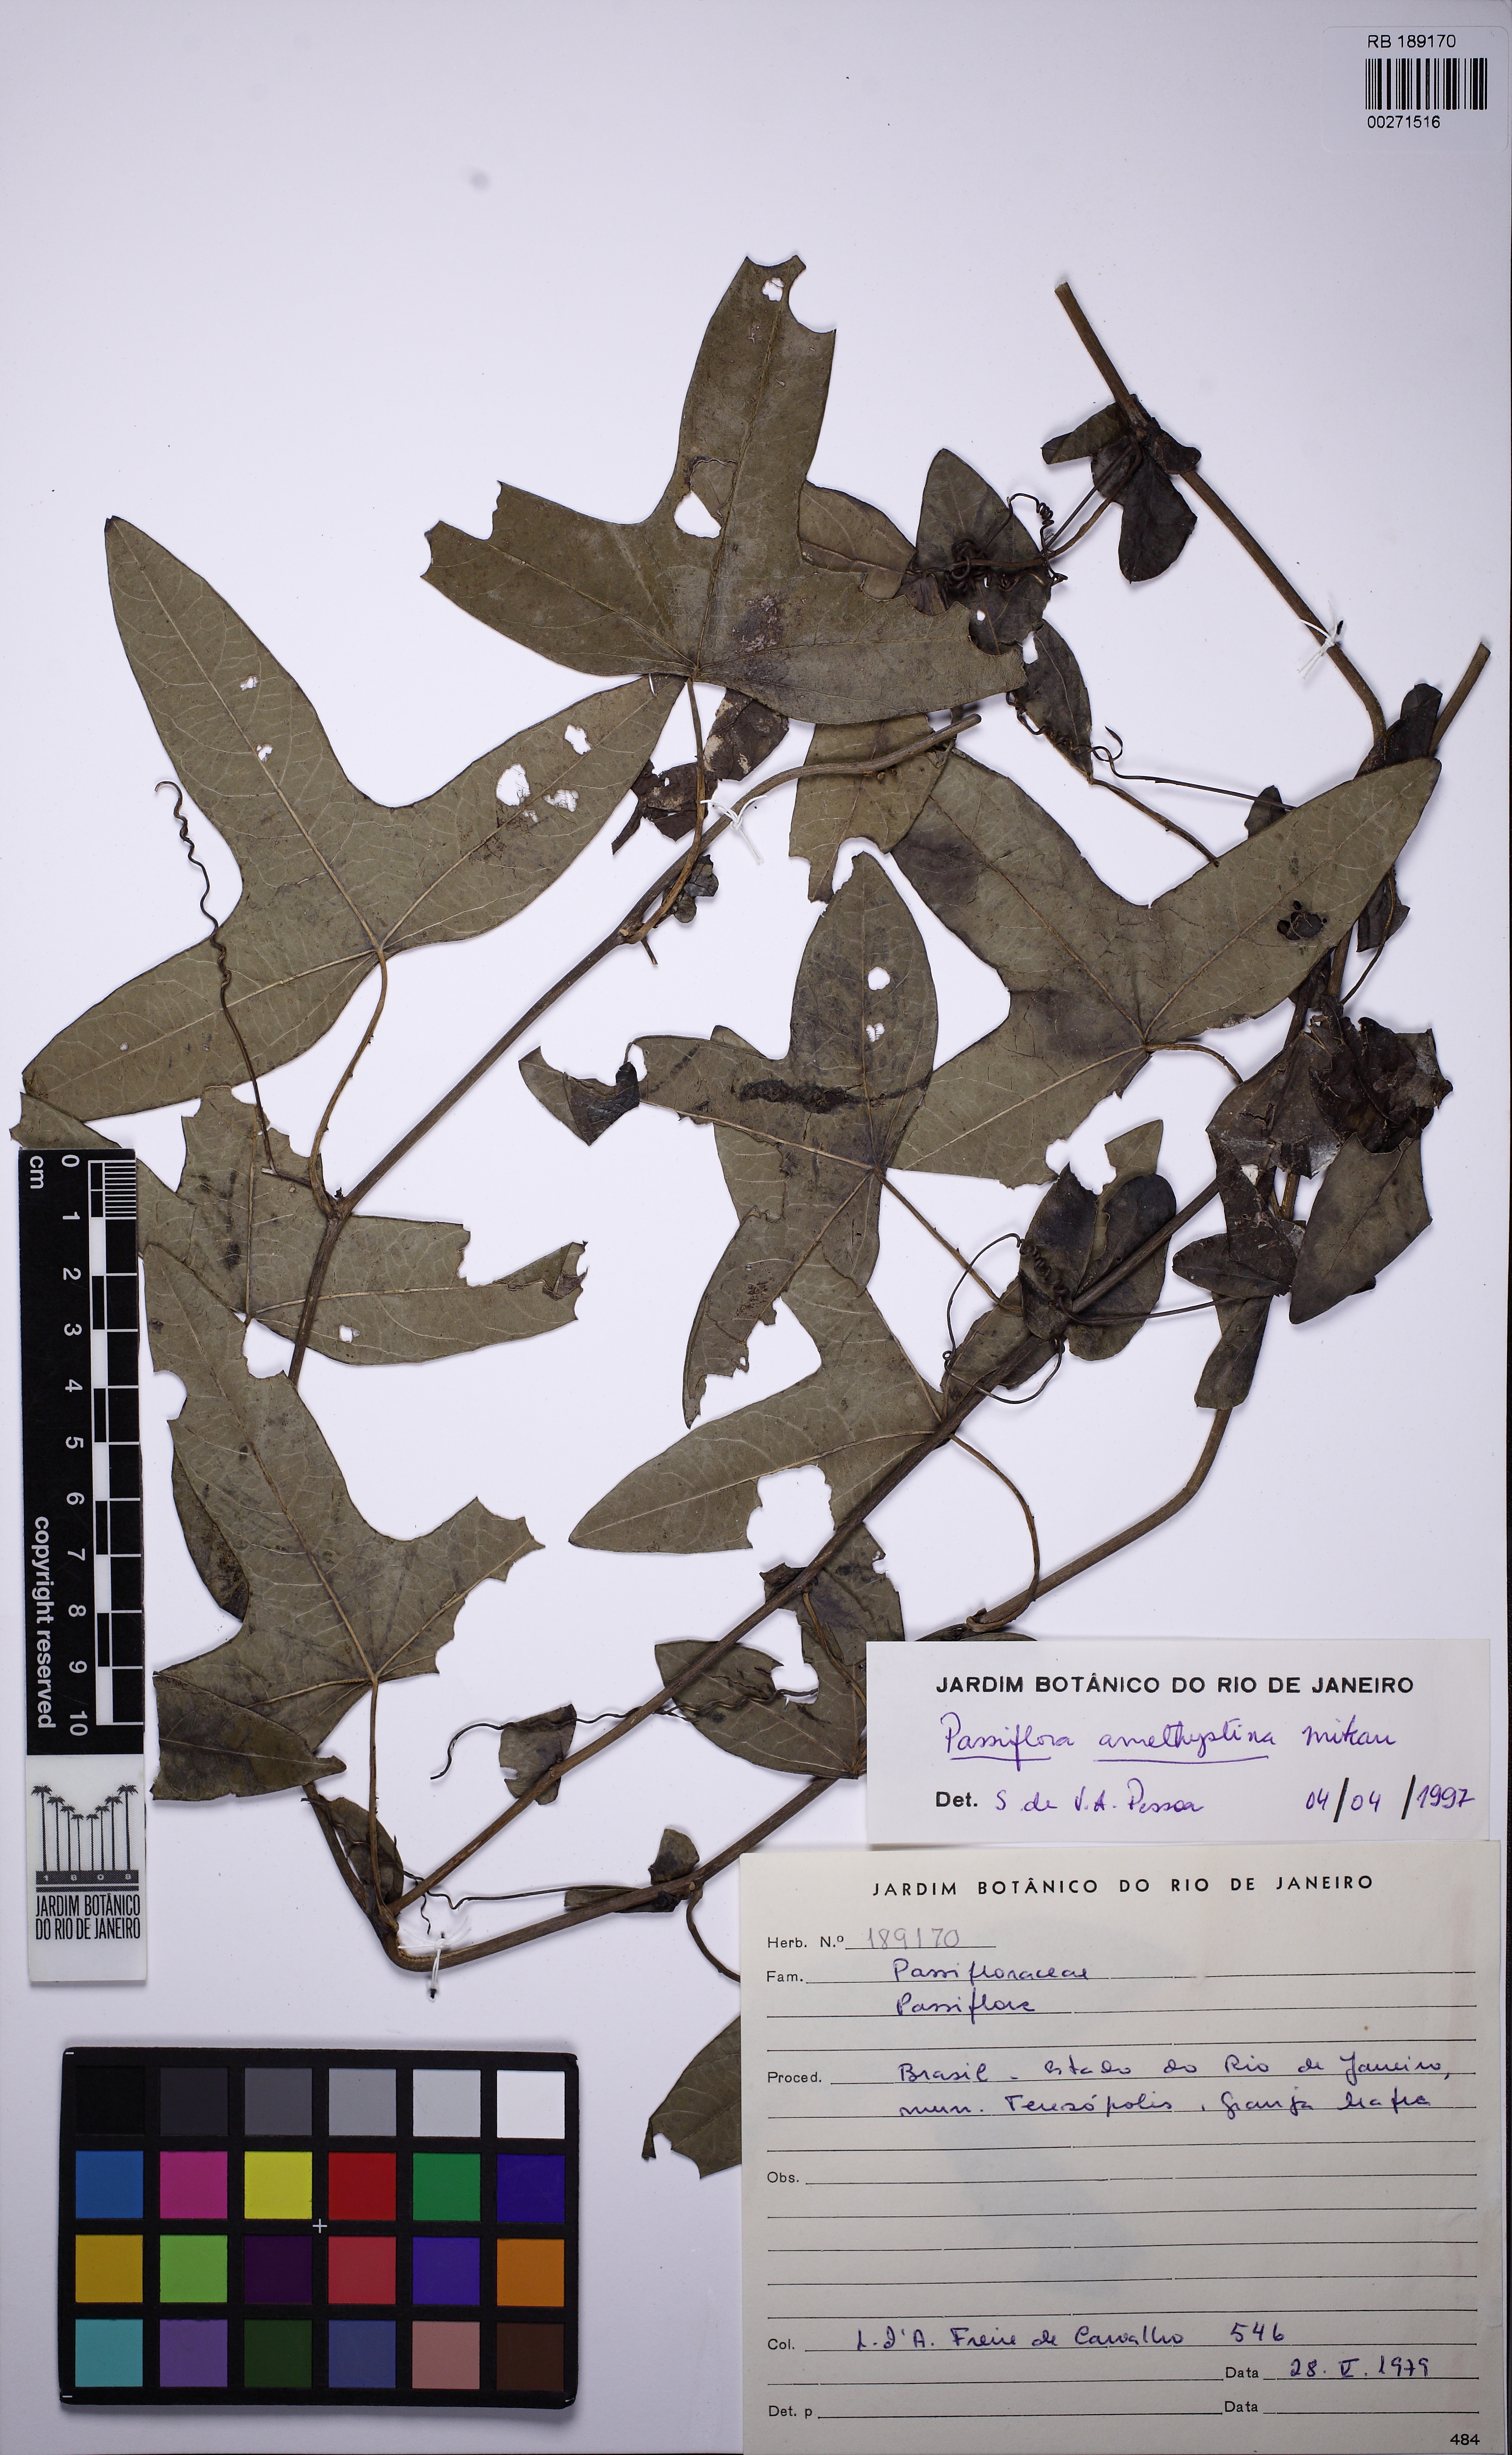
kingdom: Plantae
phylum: Tracheophyta
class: Magnoliopsida
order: Malpighiales
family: Passifloraceae
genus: Passiflora
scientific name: Passiflora amethystina
